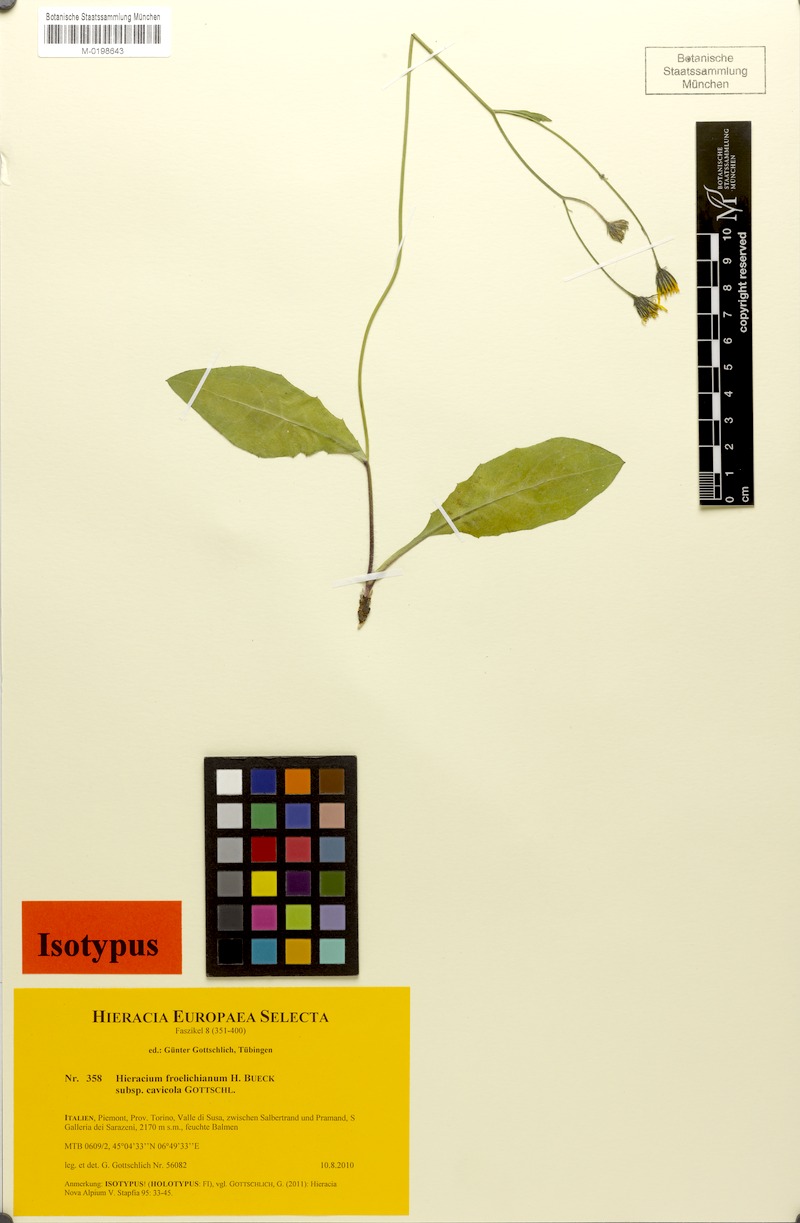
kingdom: Plantae
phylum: Tracheophyta
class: Magnoliopsida
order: Asterales
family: Asteraceae
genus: Hieracium
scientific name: Hieracium froelichianum
